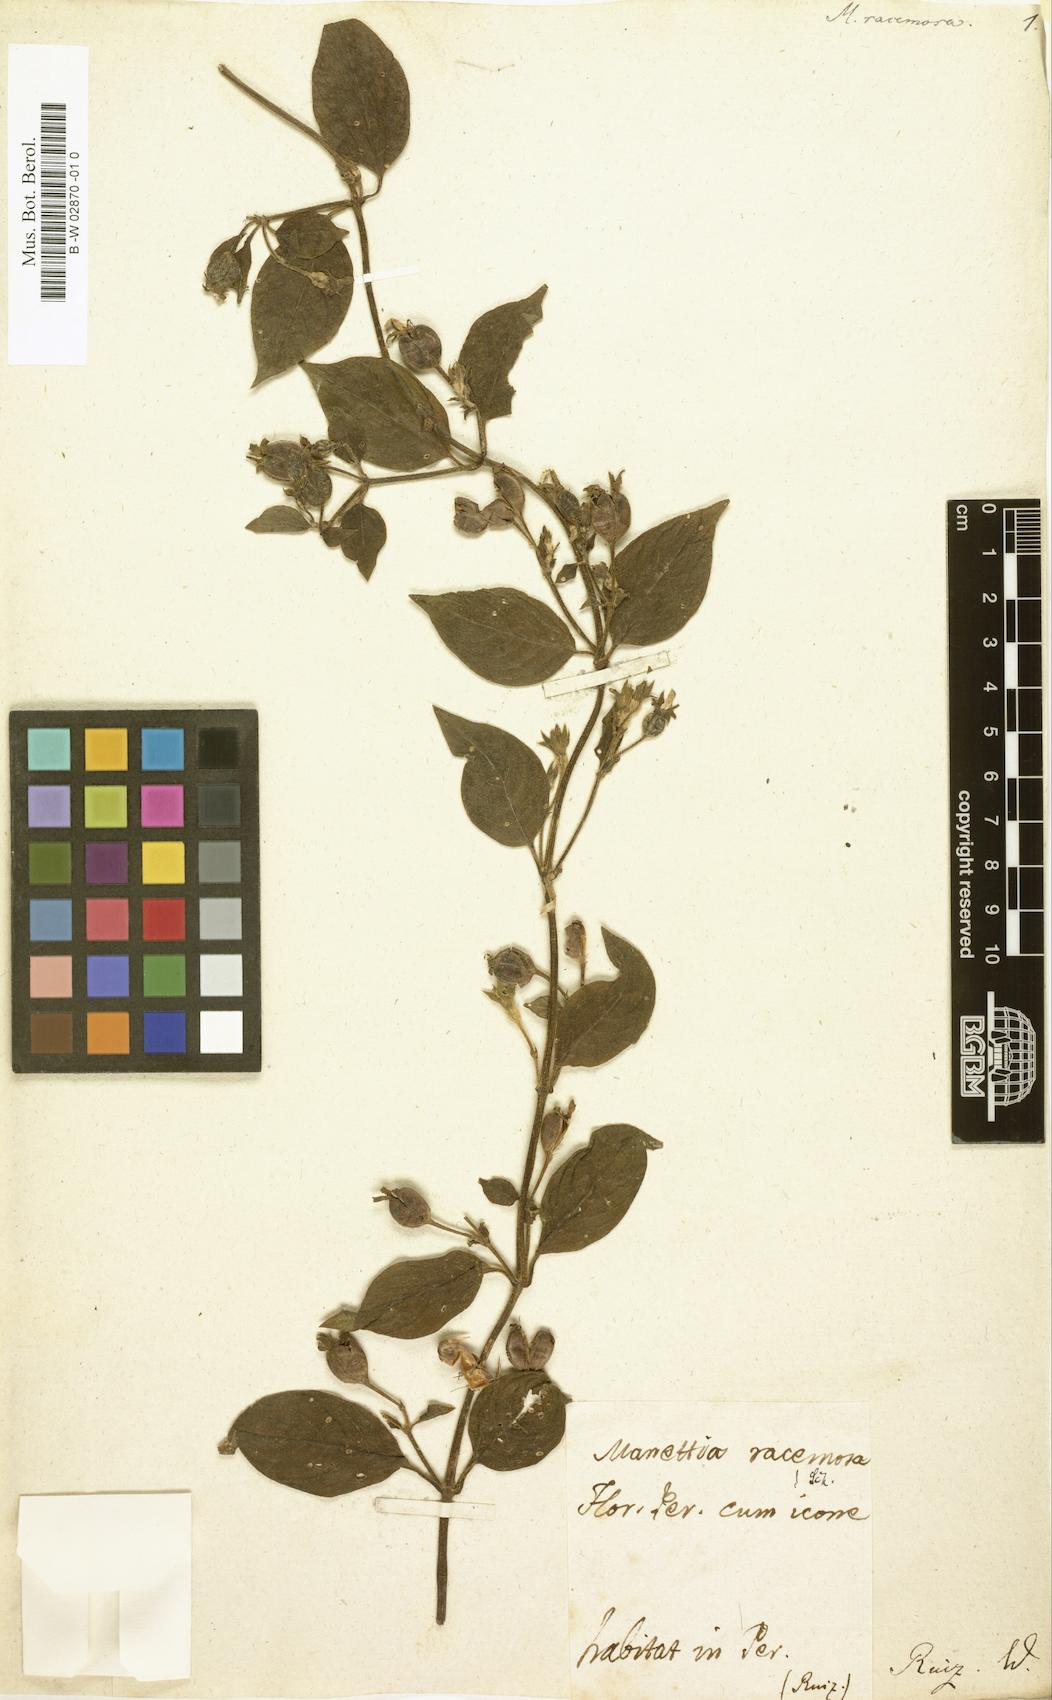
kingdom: Plantae
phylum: Tracheophyta
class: Magnoliopsida
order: Gentianales
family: Rubiaceae
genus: Manettia
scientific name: Manettia racemosa
